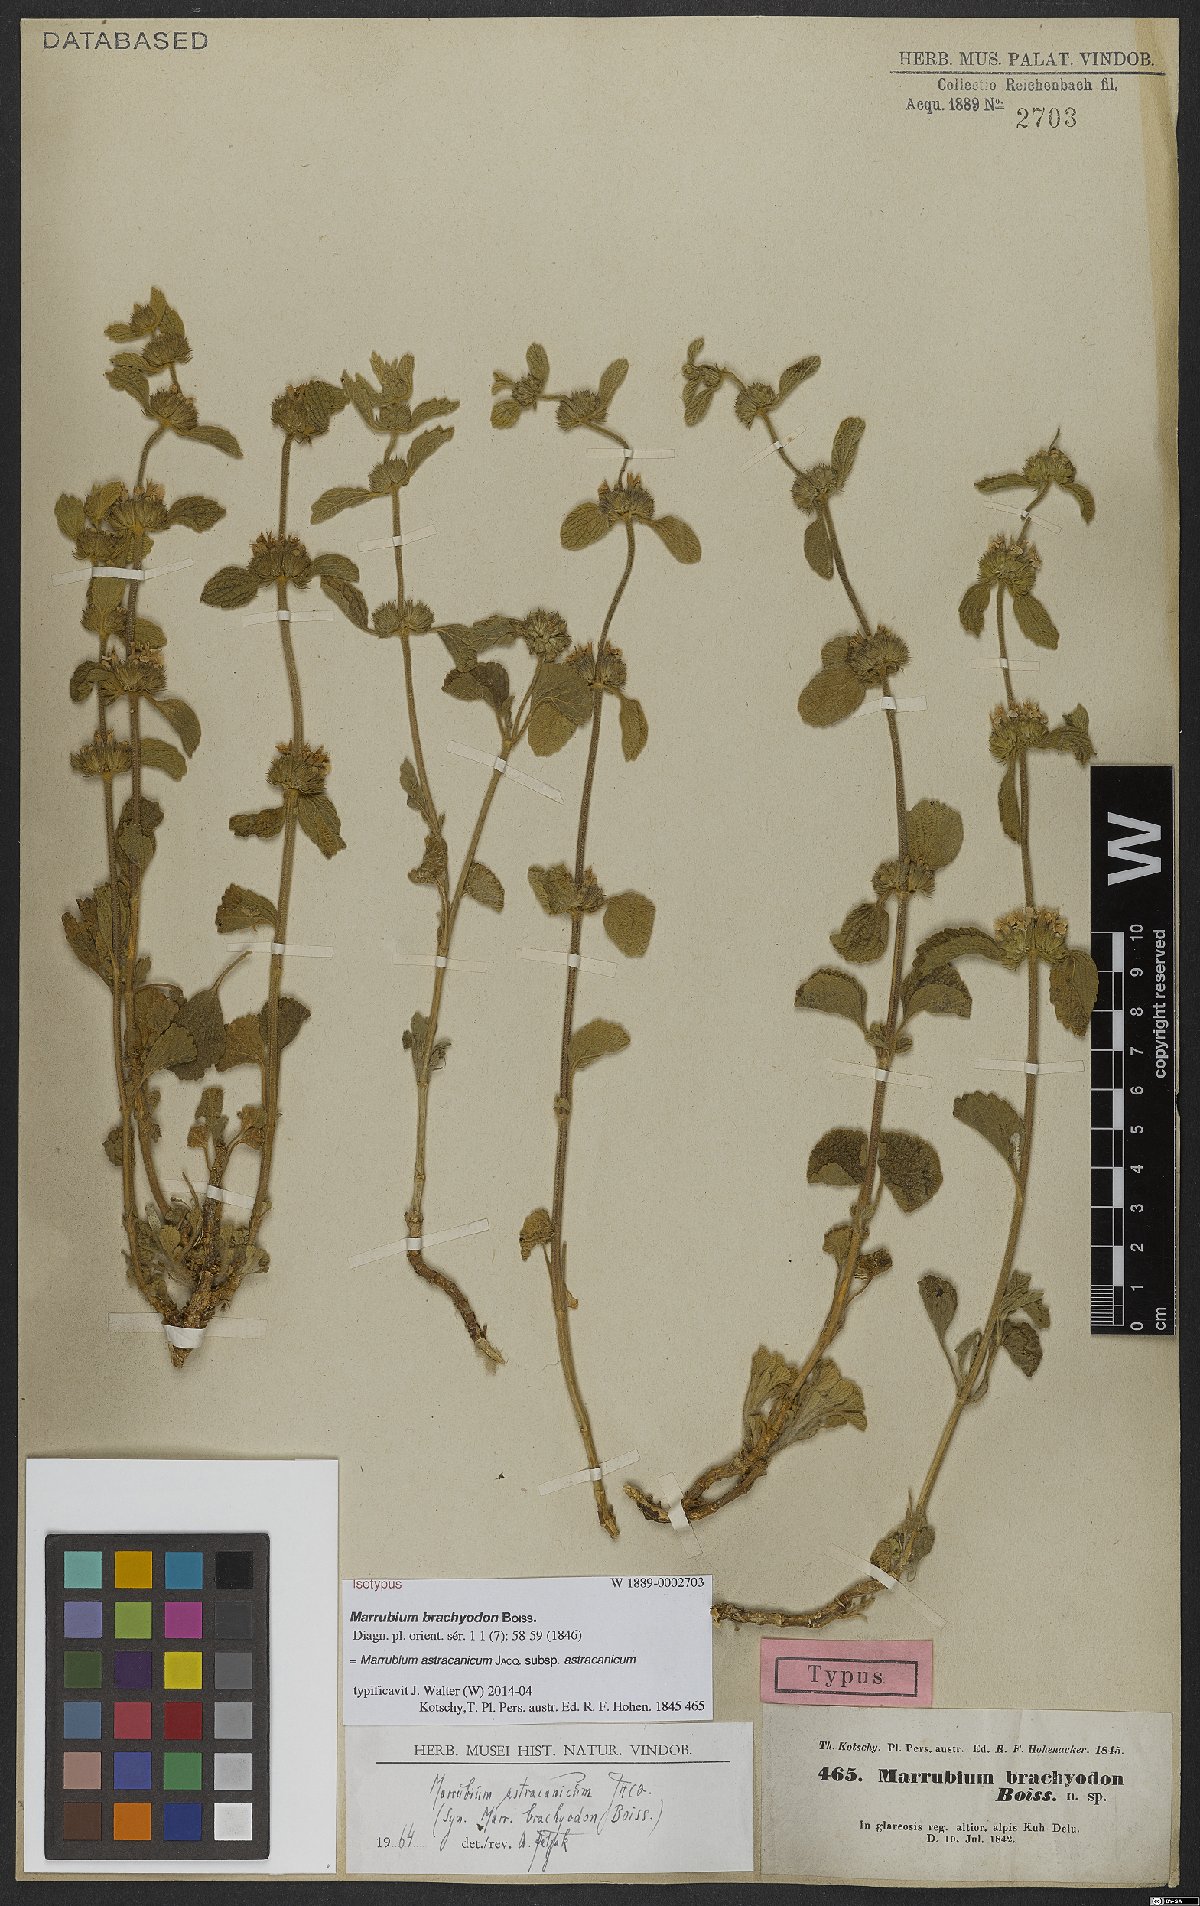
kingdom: Plantae
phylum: Tracheophyta
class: Magnoliopsida
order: Lamiales
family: Lamiaceae
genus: Marrubium
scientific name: Marrubium astracanicum
